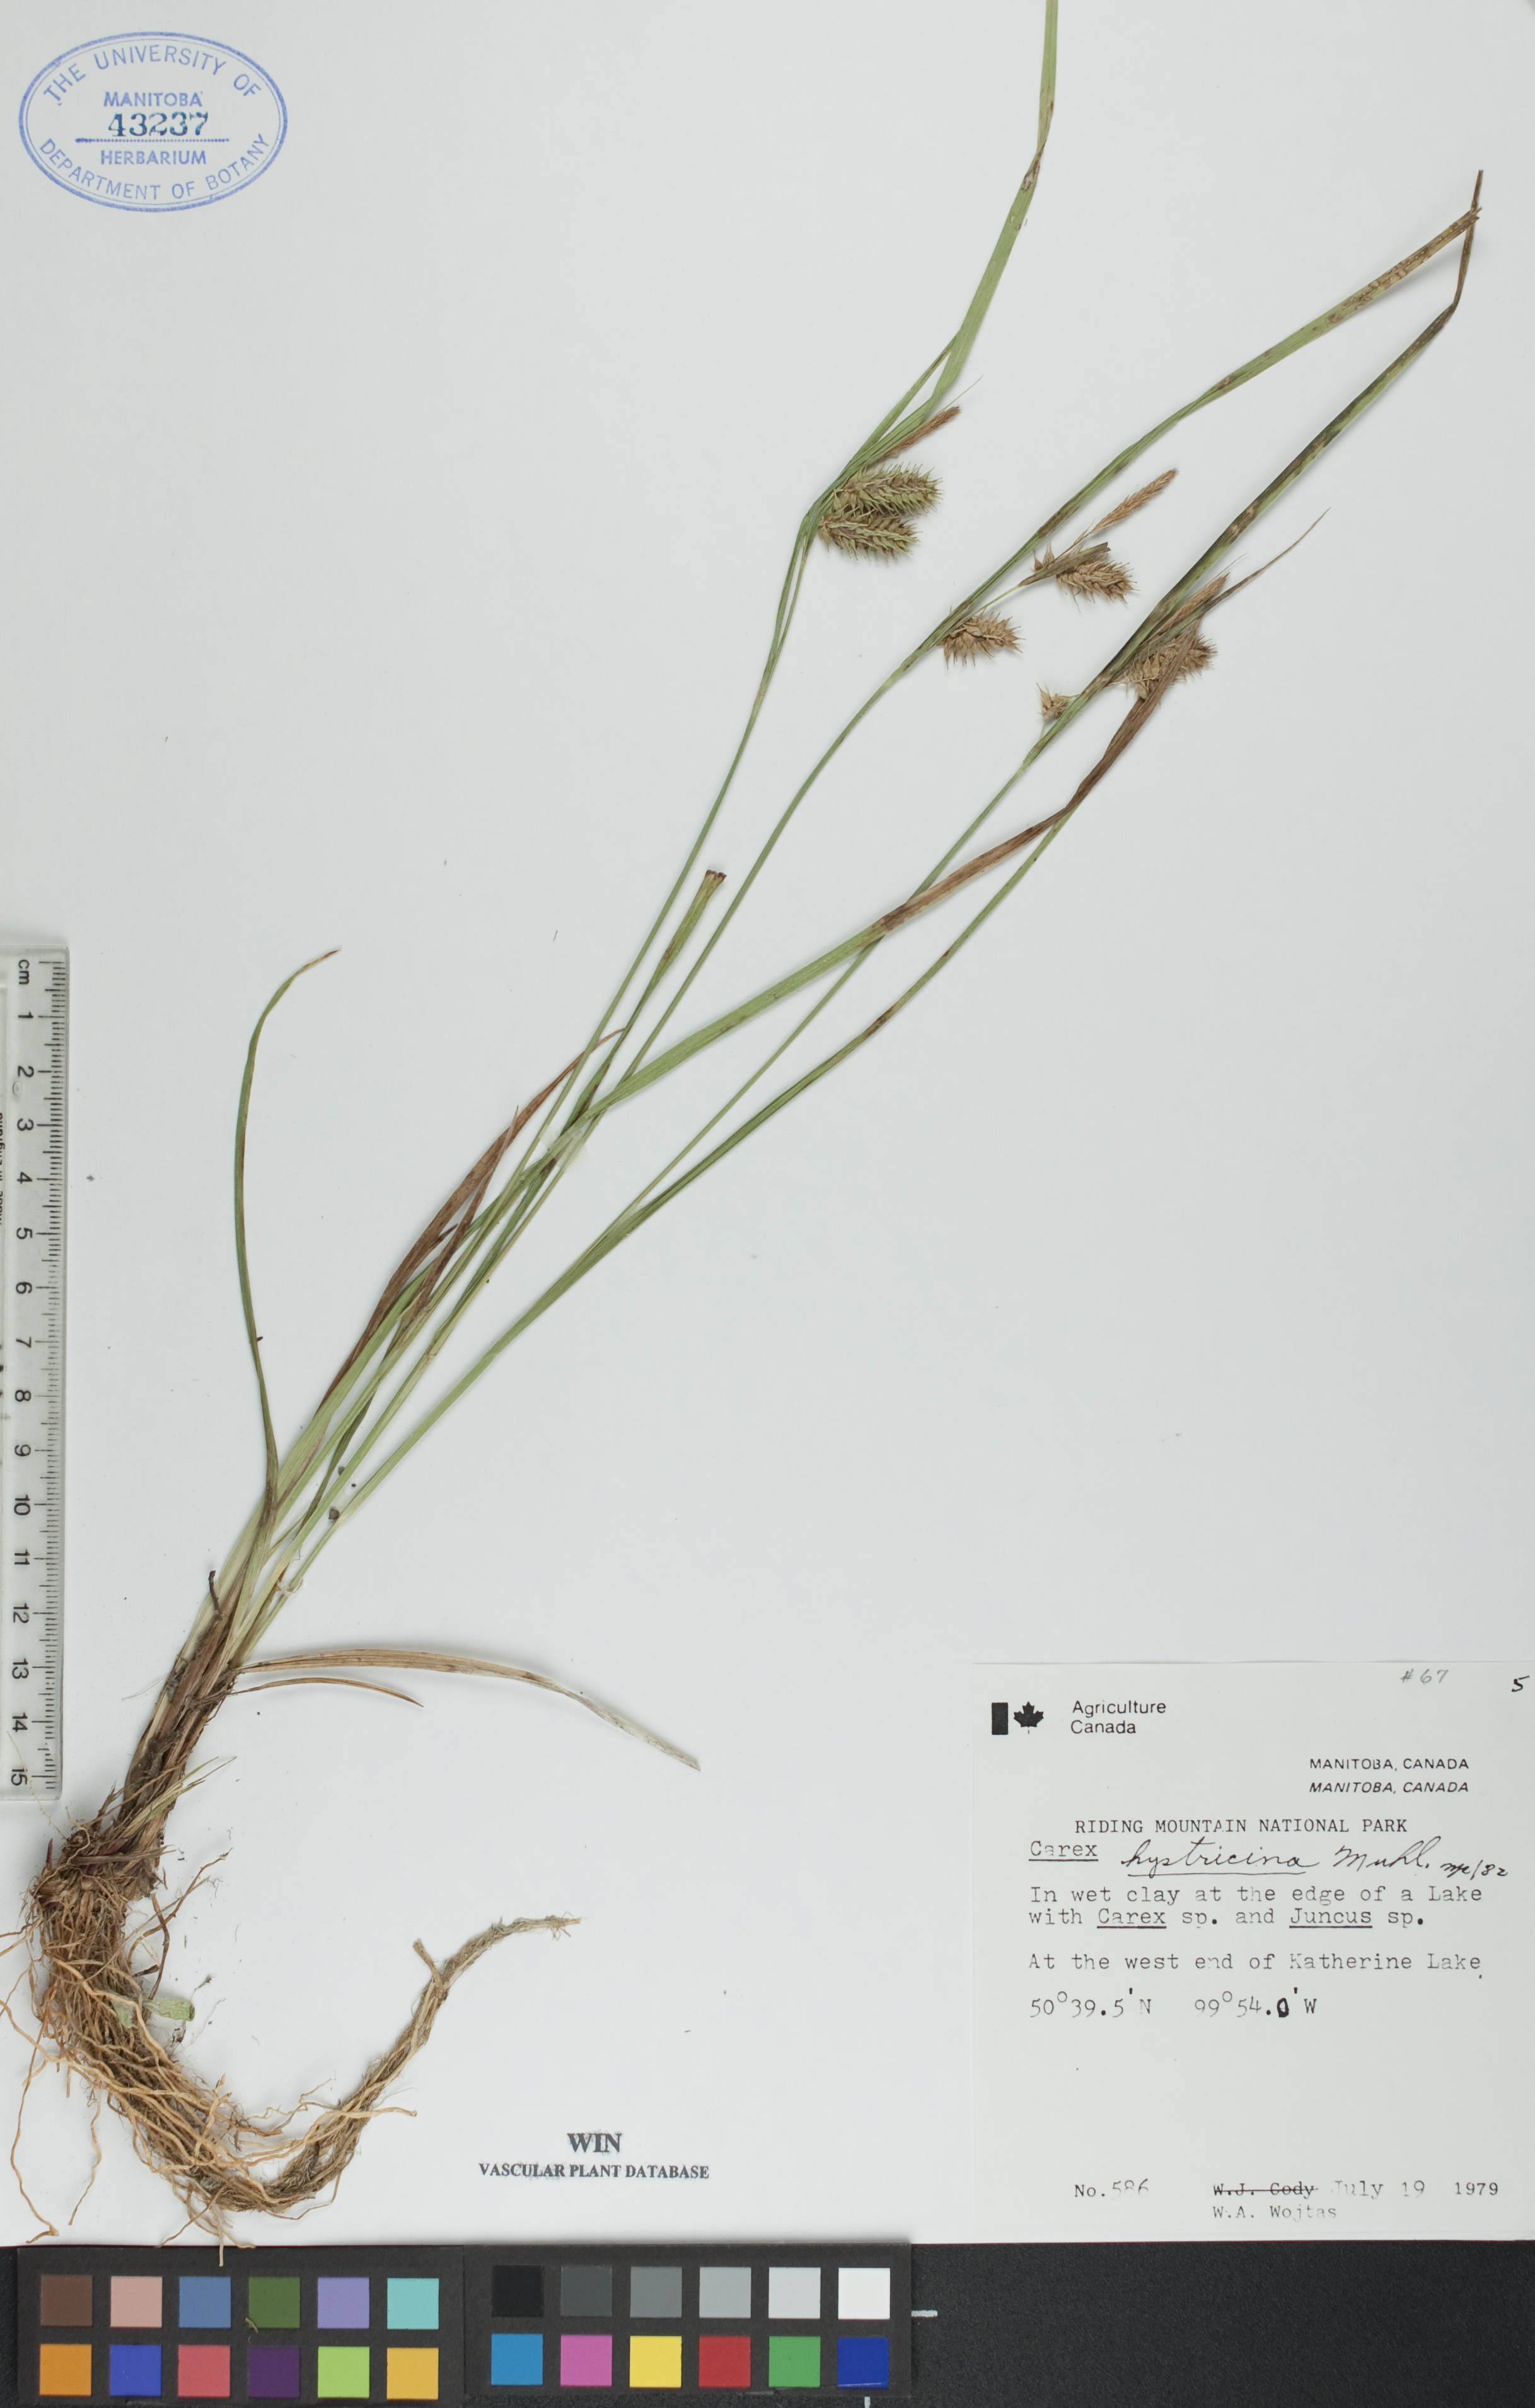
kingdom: Plantae
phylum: Tracheophyta
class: Liliopsida
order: Poales
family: Cyperaceae
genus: Carex
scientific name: Carex hystericina
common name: Bottlebrush sedge
